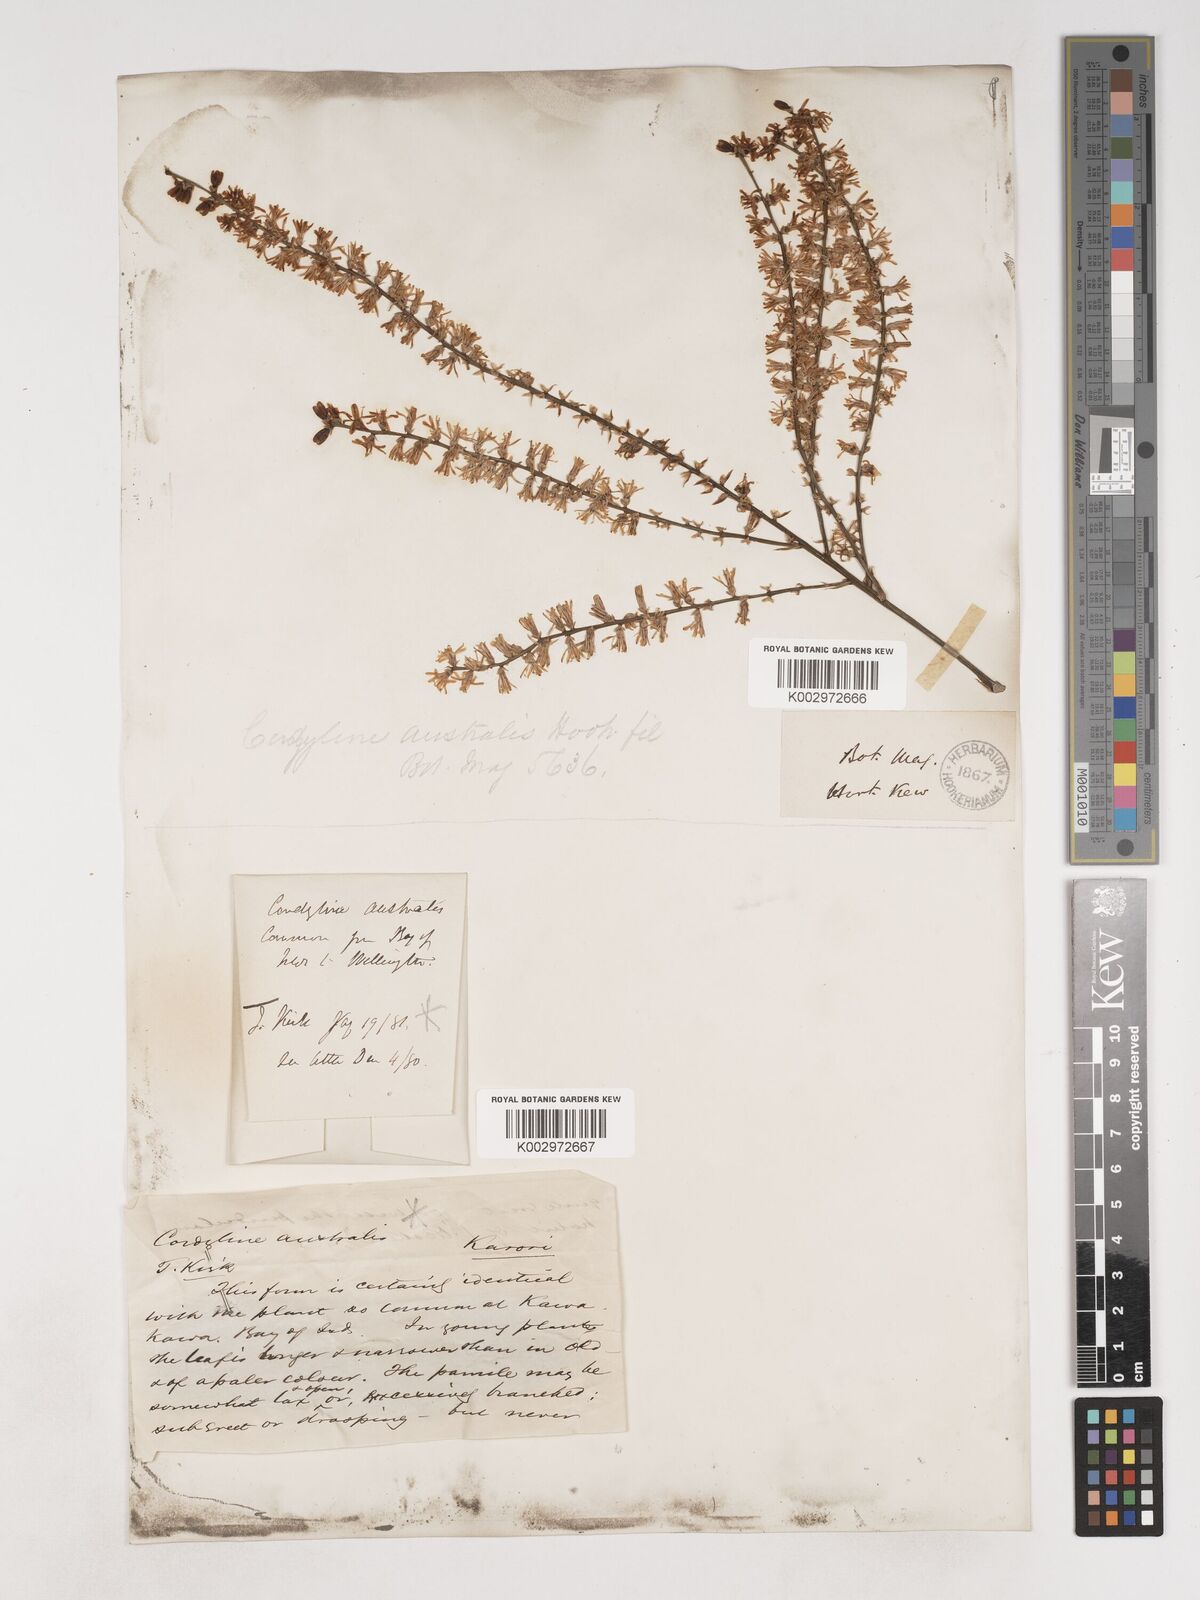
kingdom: Plantae
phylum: Tracheophyta
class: Liliopsida
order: Asparagales
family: Asparagaceae
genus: Cordyline
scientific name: Cordyline australis
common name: Cabbage-palm
